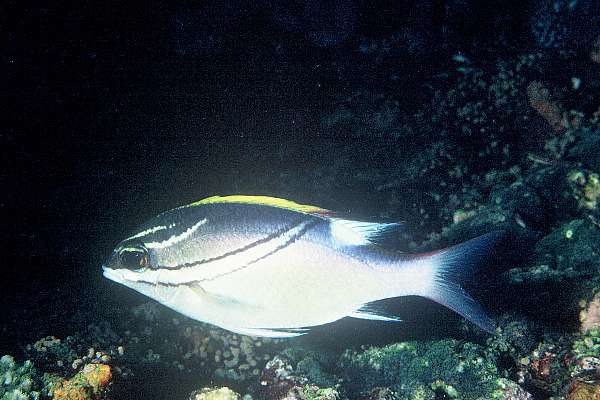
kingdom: Animalia
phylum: Chordata
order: Perciformes
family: Nemipteridae
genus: Scolopsis
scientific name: Scolopsis bilineata
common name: Two-lined monocle bream
